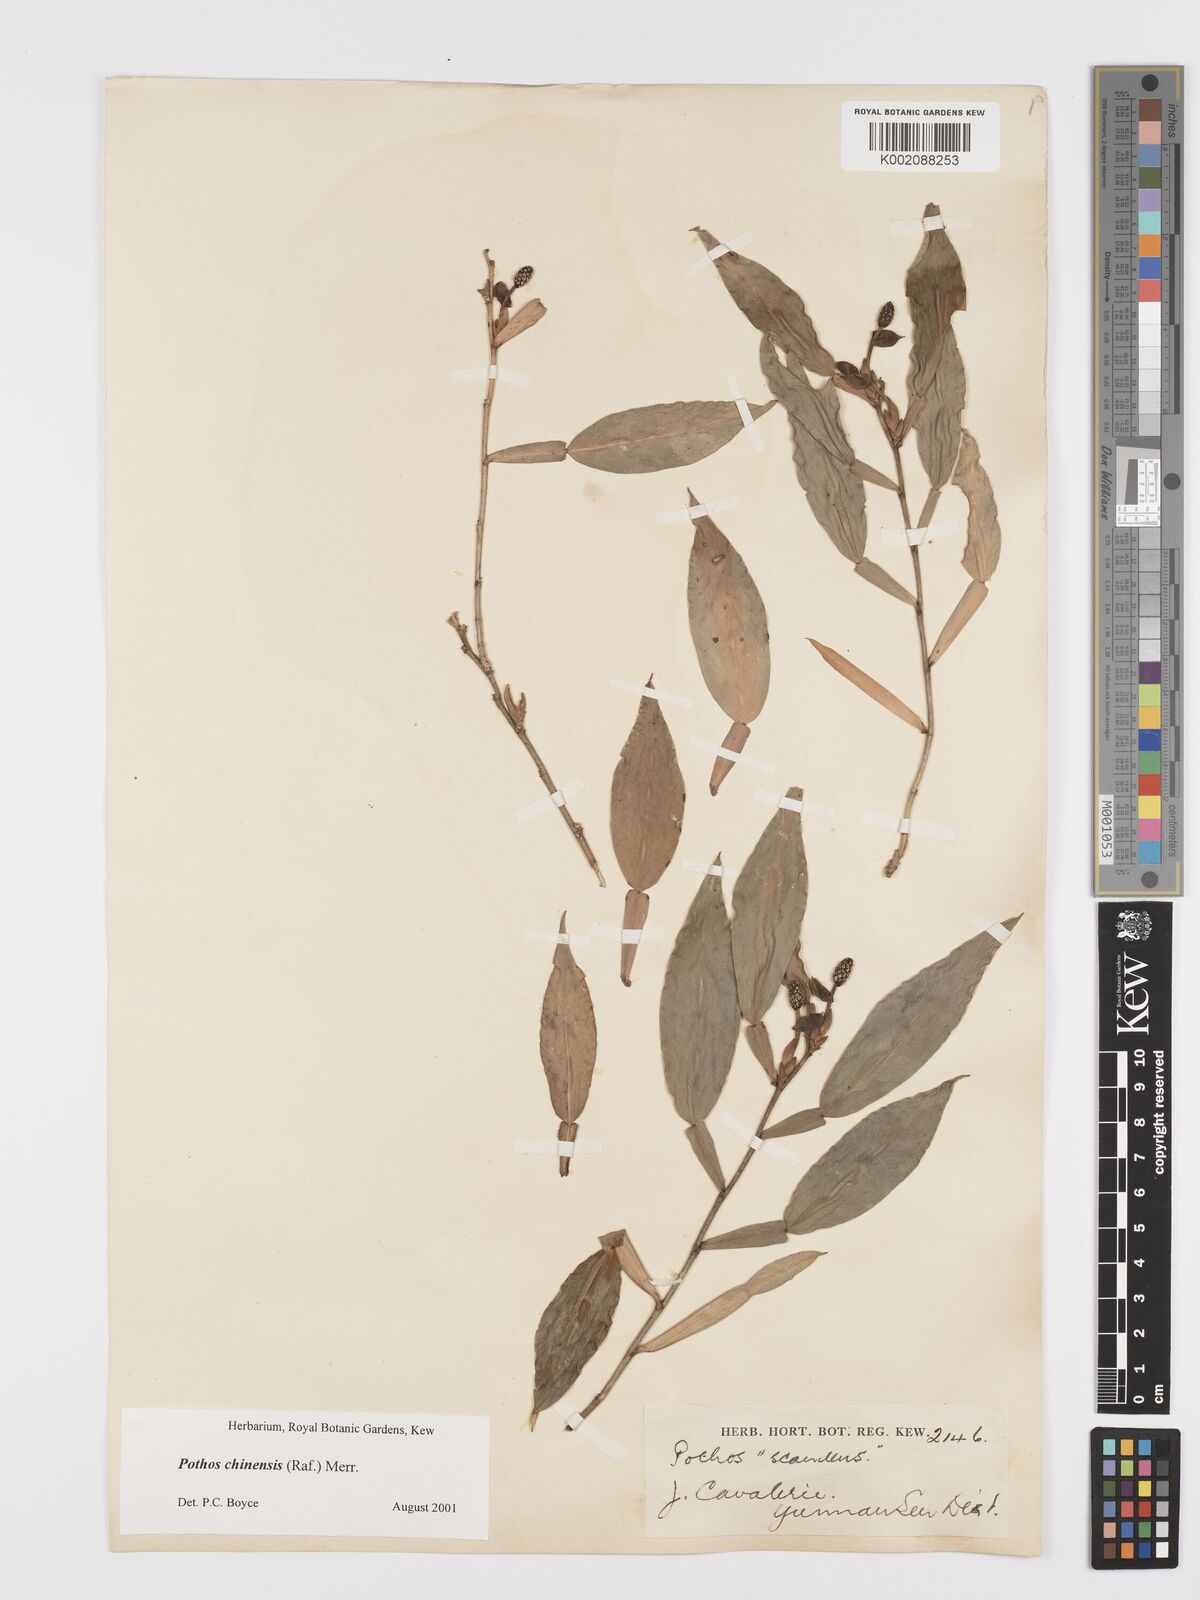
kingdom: Plantae
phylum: Tracheophyta
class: Liliopsida
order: Alismatales
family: Araceae
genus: Pothos
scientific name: Pothos chinensis
